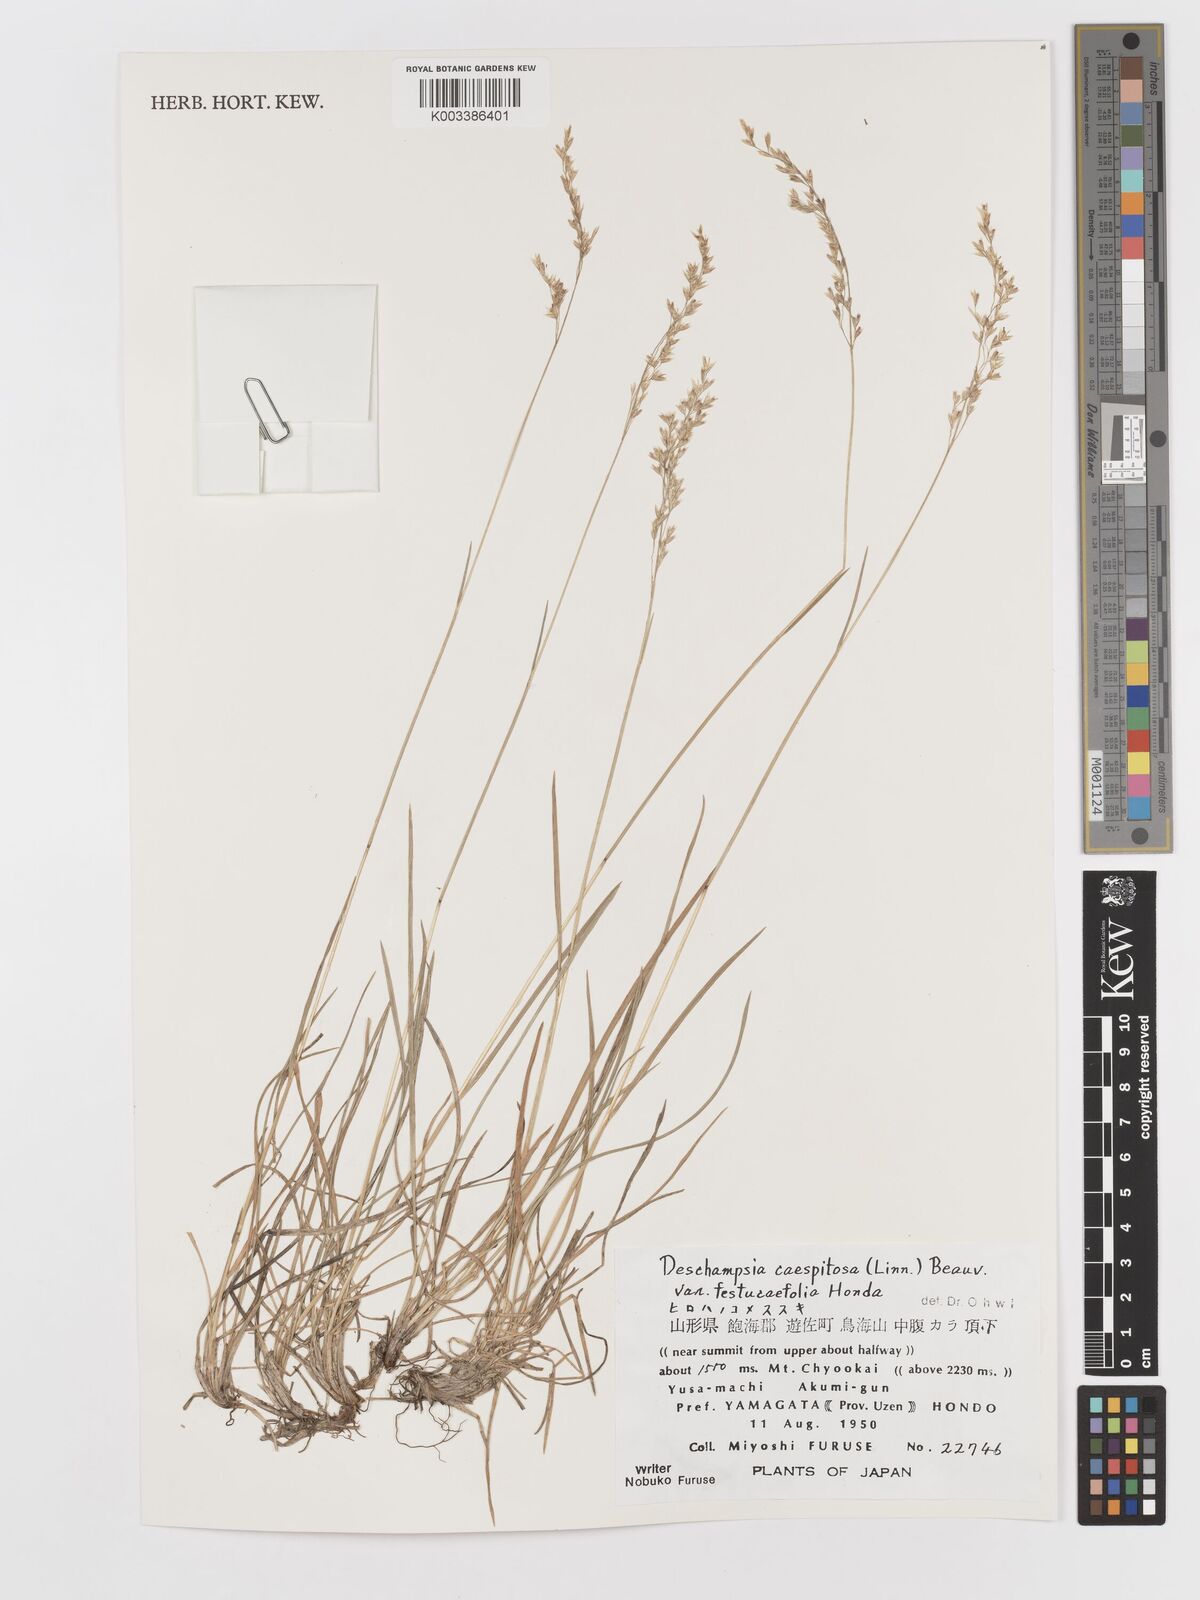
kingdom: Plantae
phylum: Tracheophyta
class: Liliopsida
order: Poales
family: Poaceae
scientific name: Poaceae
